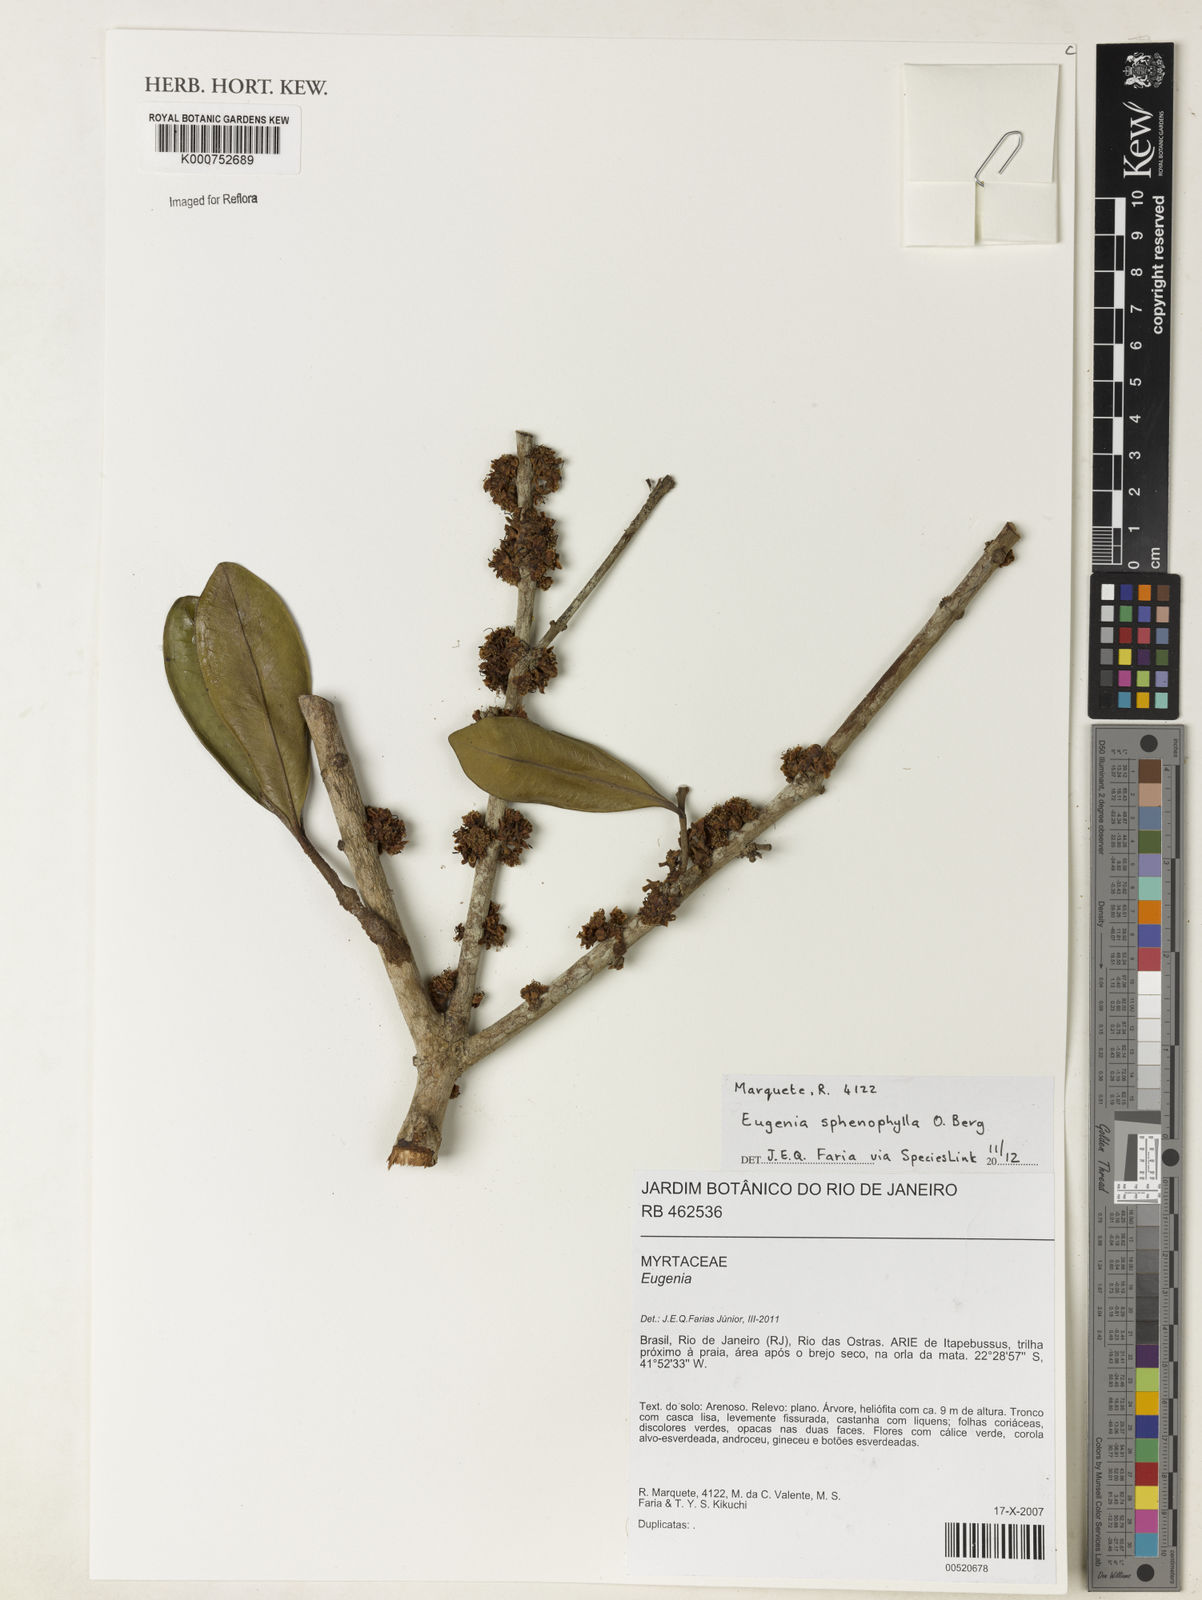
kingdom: Plantae
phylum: Tracheophyta
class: Magnoliopsida
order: Myrtales
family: Myrtaceae
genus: Eugenia
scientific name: Eugenia sphenophylla
